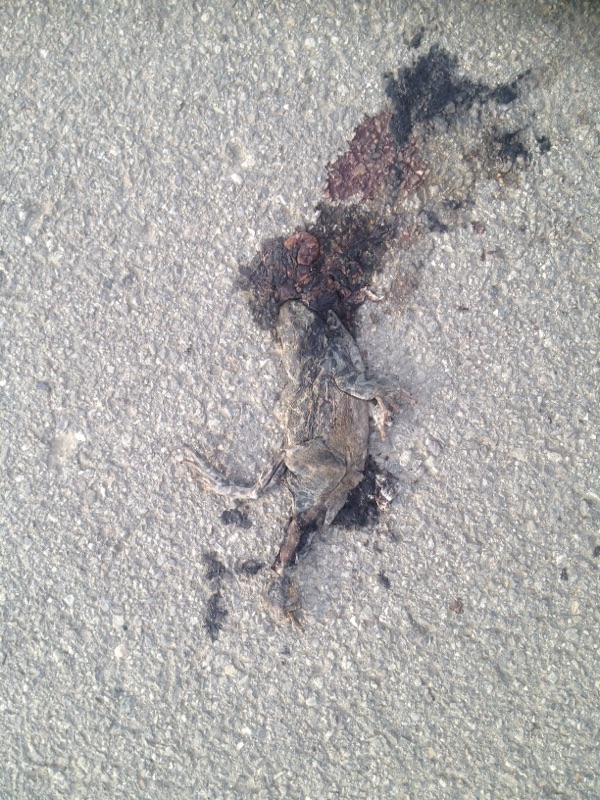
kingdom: Animalia
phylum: Chordata
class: Amphibia
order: Anura
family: Bufonidae
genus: Bufotes
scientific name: Bufotes viridis
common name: European green toad
